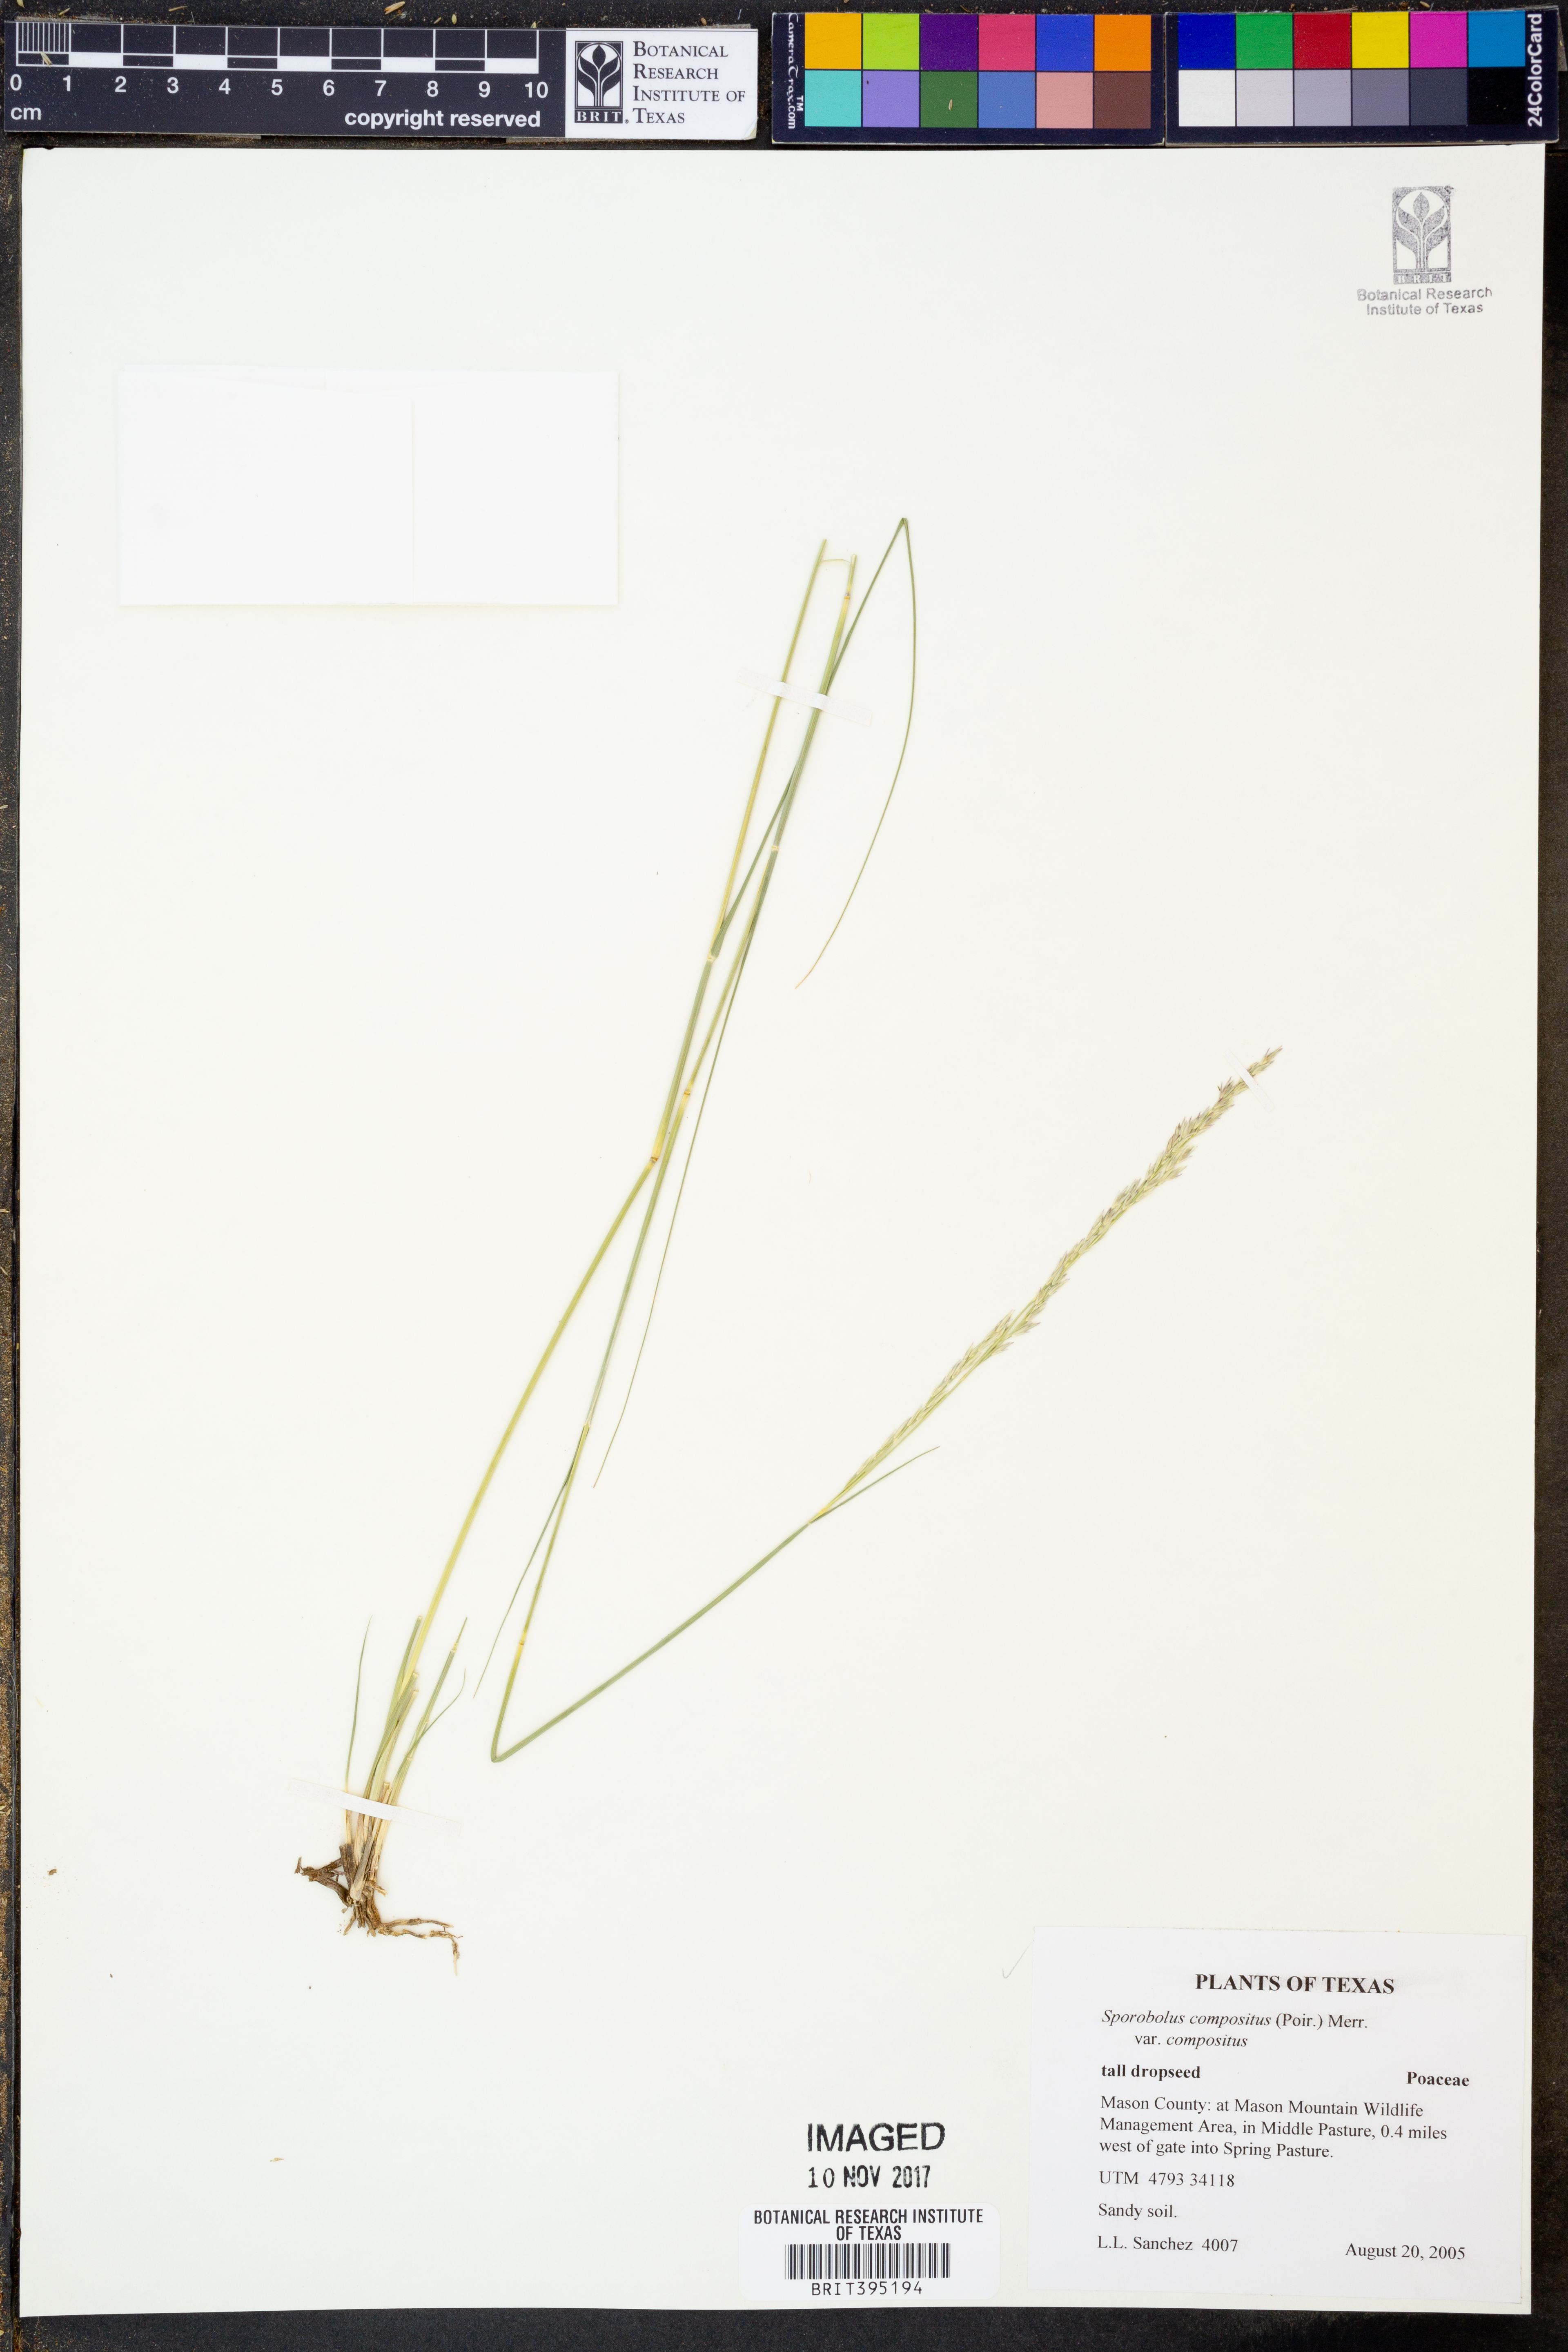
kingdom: Plantae
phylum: Tracheophyta
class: Liliopsida
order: Poales
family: Poaceae
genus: Sporobolus
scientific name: Sporobolus compositus
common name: Rough dropseed
